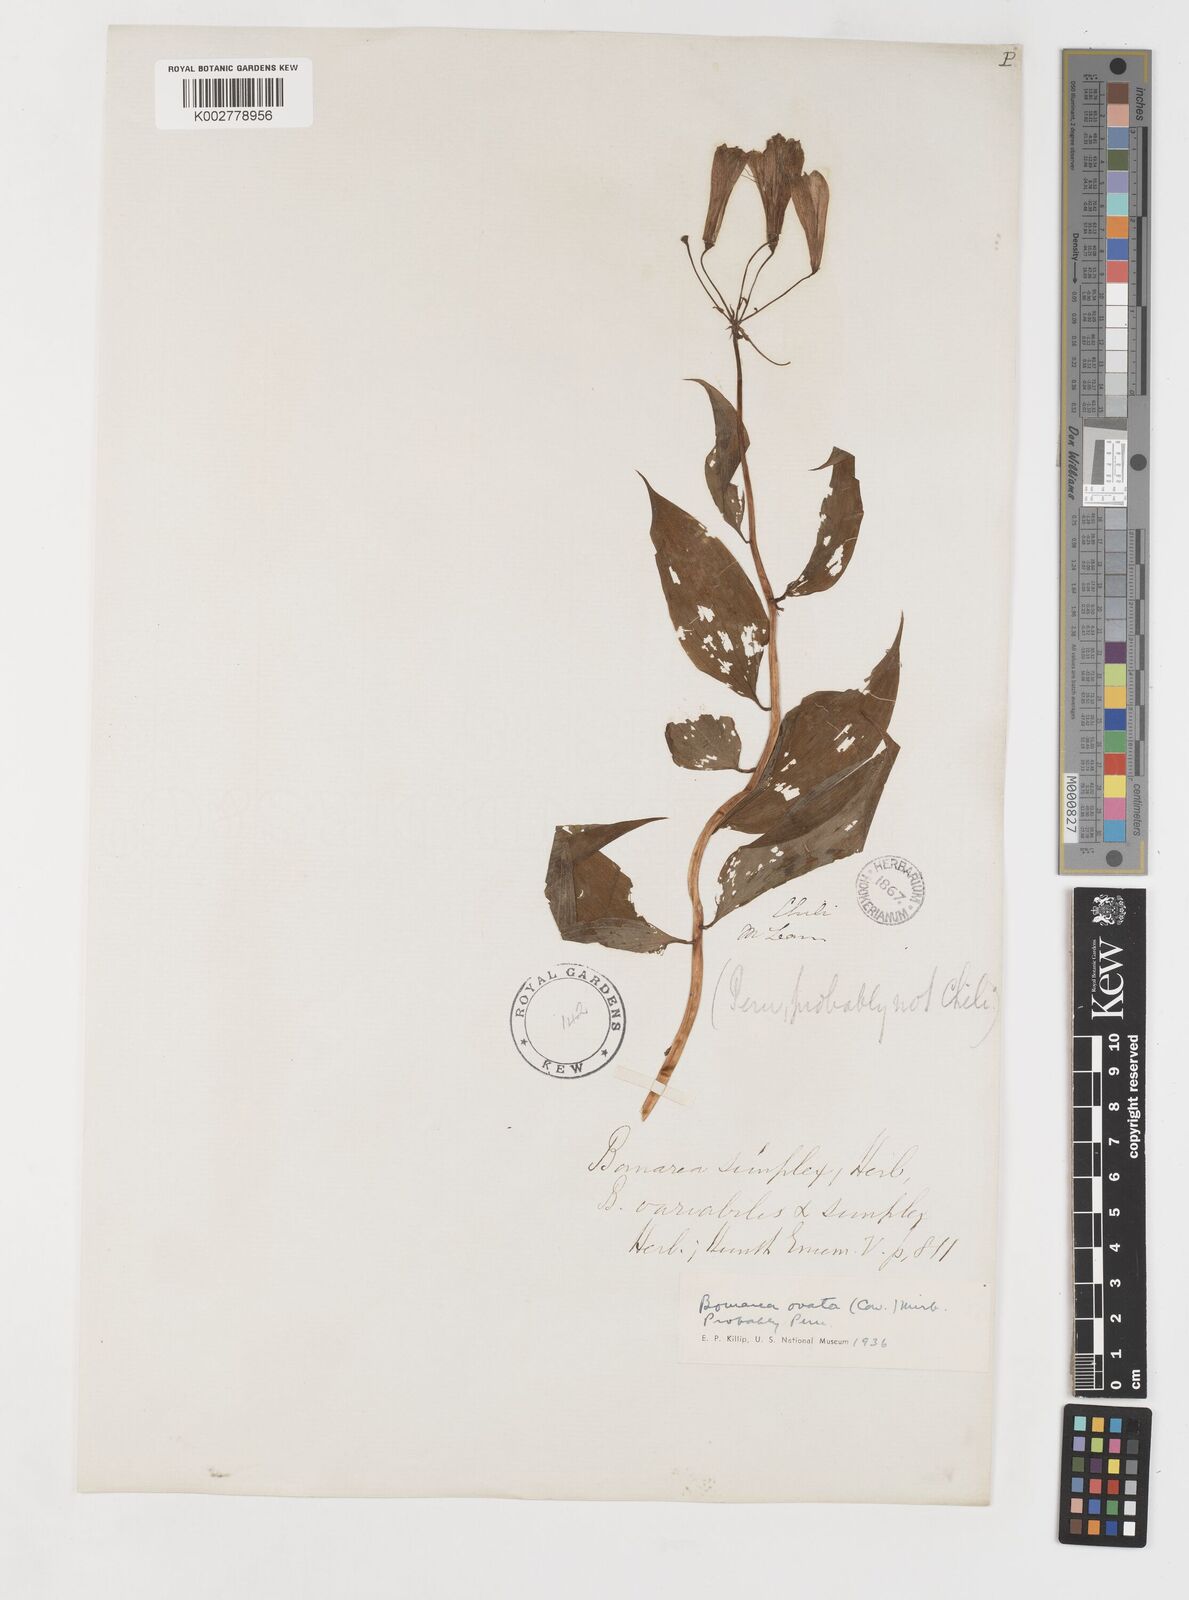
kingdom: Plantae
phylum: Tracheophyta
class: Liliopsida
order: Liliales
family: Alstroemeriaceae
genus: Bomarea
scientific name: Bomarea ovata
